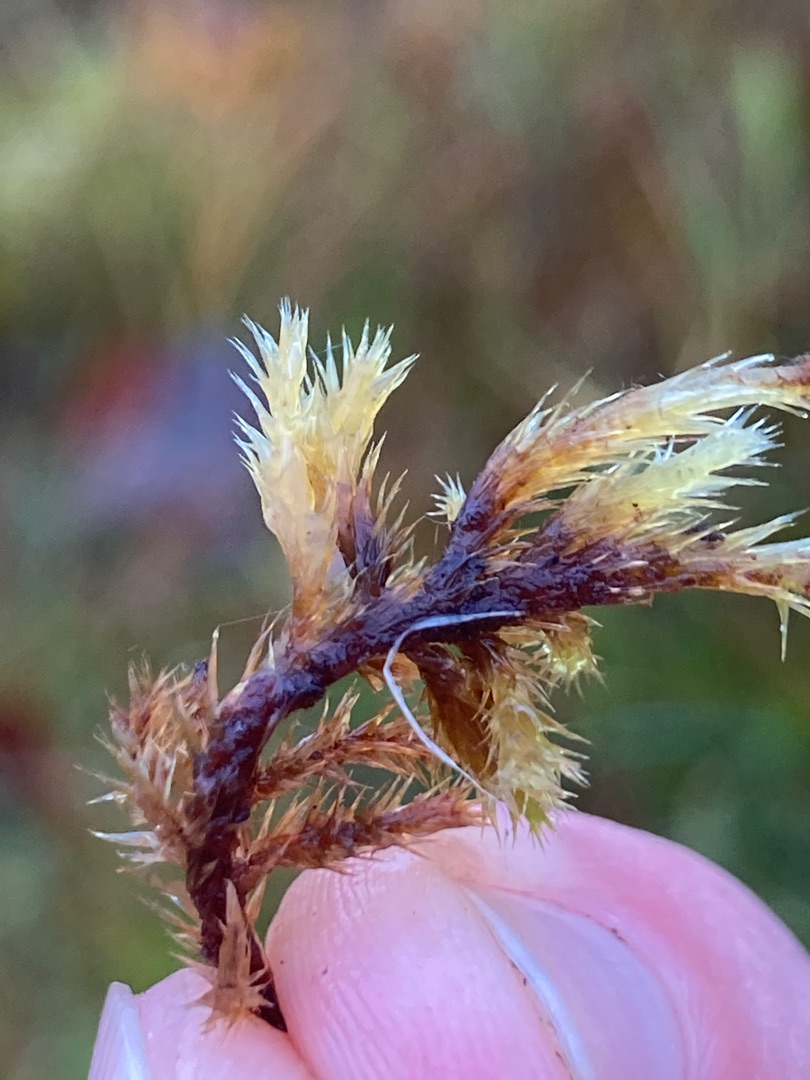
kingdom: Plantae
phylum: Bryophyta
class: Bryopsida
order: Hypnales
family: Amblystegiaceae
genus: Tomentypnum
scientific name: Tomentypnum nitens
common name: Glinsende kærmos
